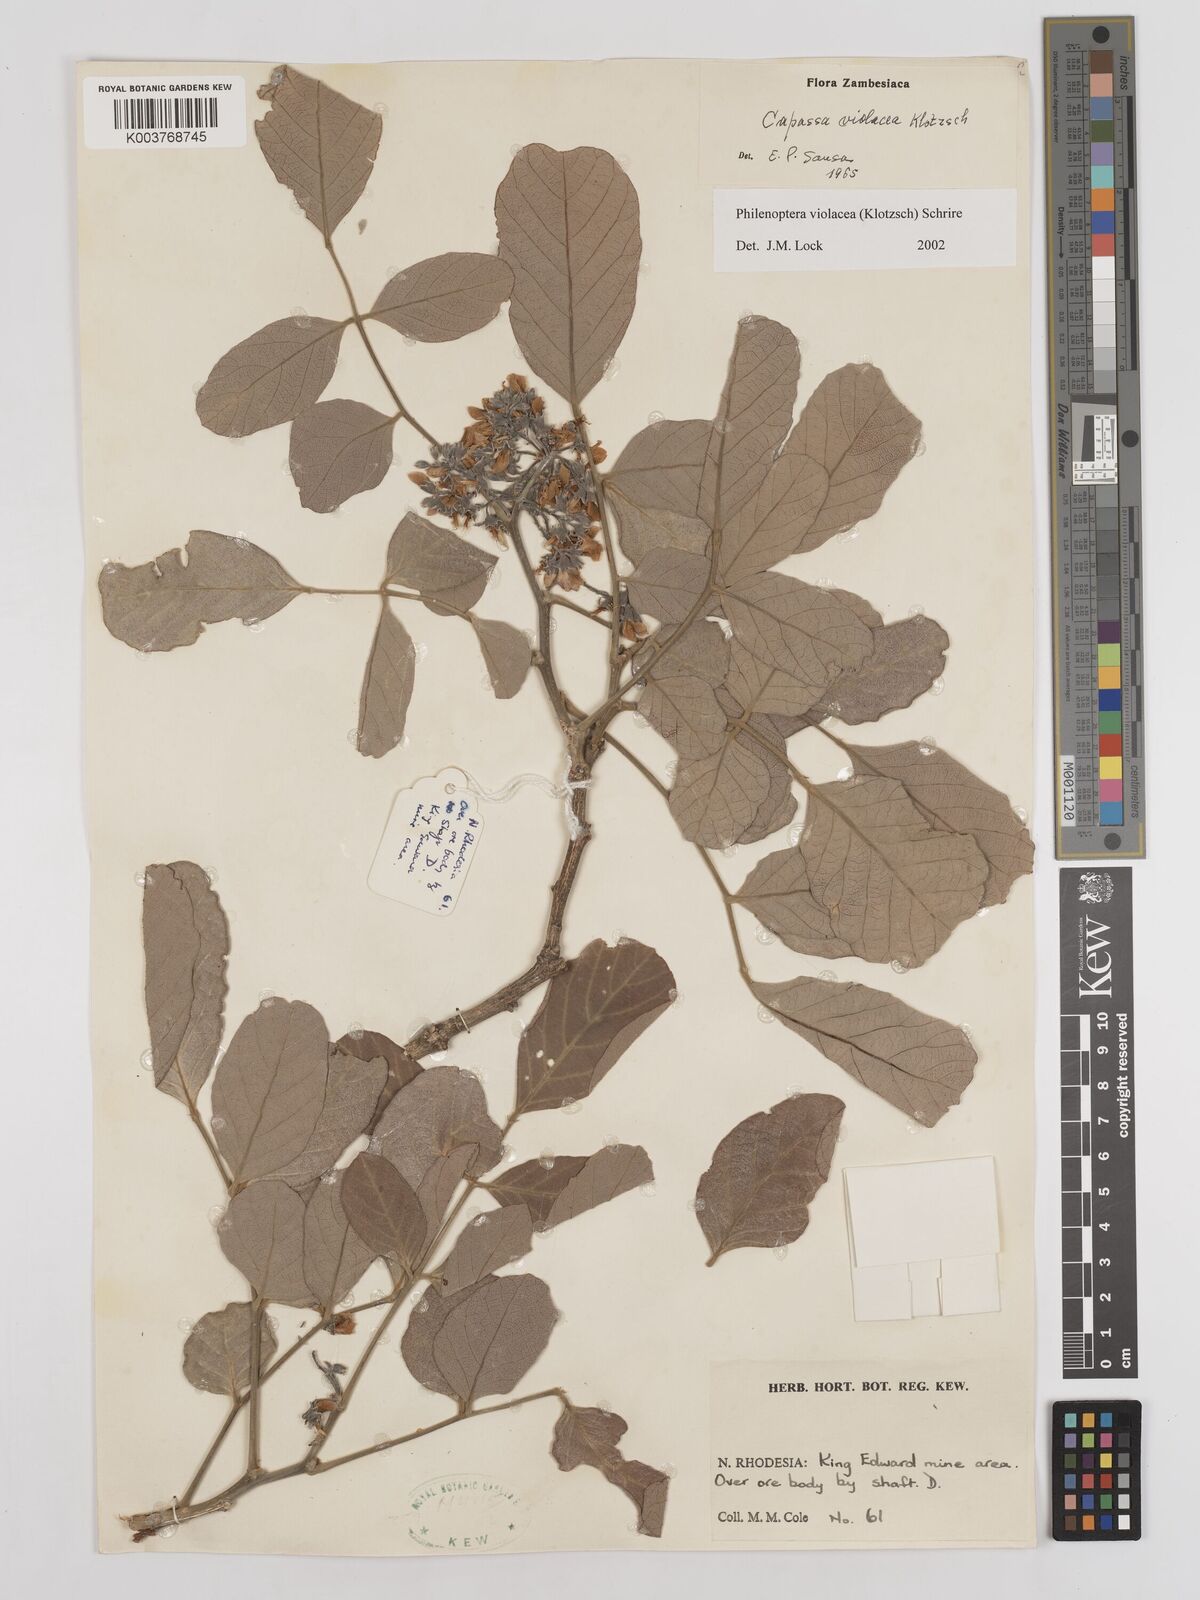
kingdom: Plantae
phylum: Tracheophyta
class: Magnoliopsida
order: Fabales
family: Fabaceae
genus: Philenoptera
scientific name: Philenoptera violacea
